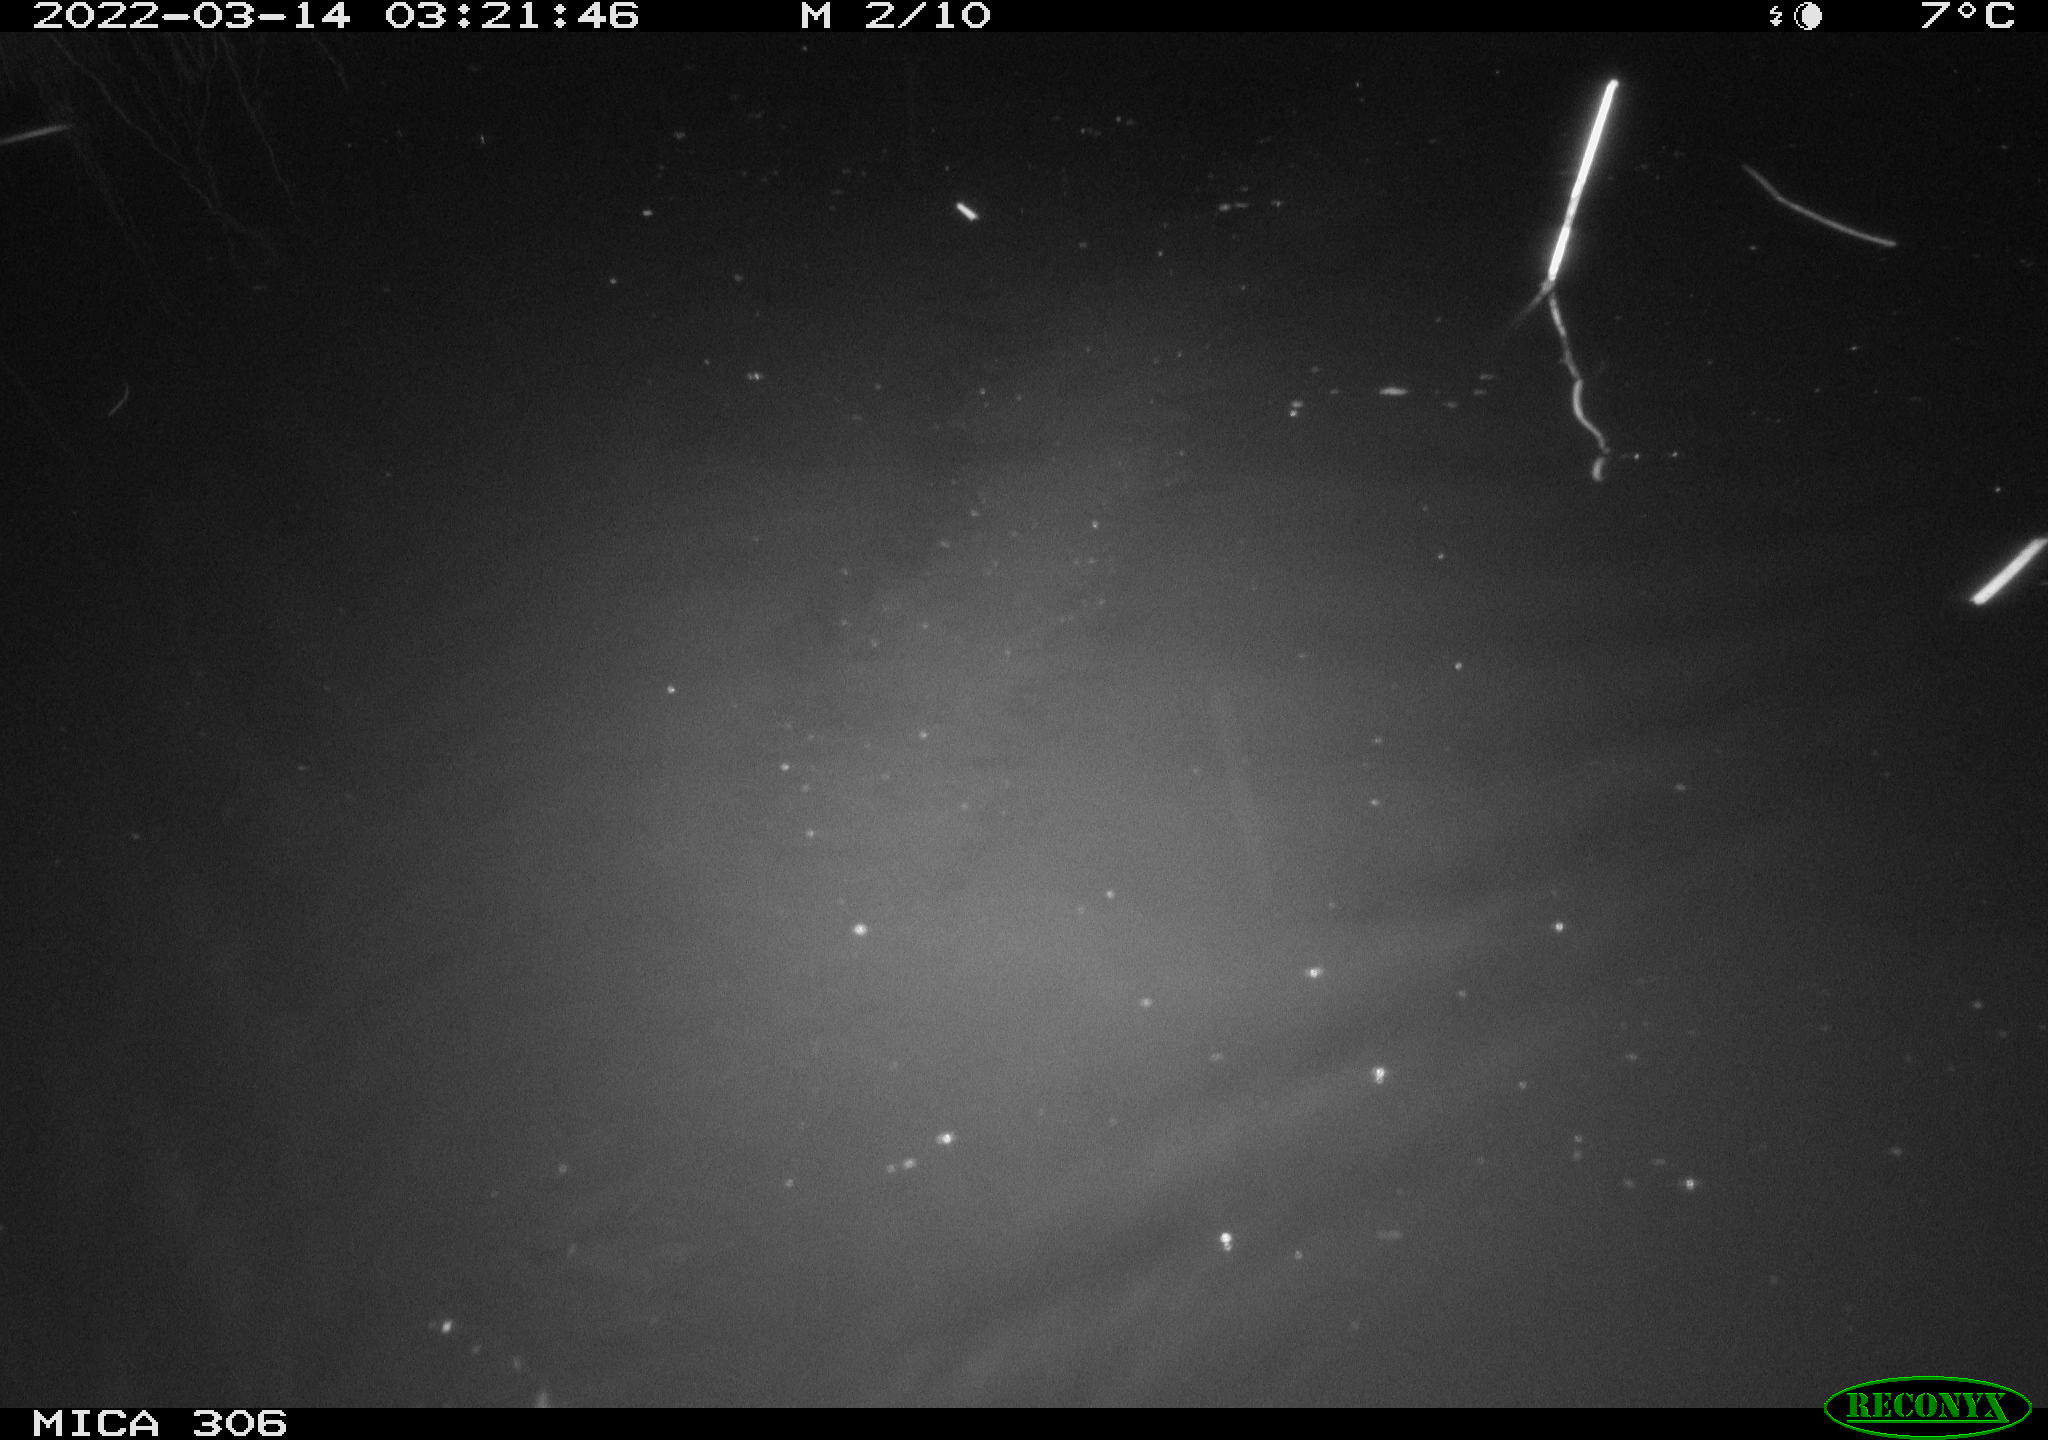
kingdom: Animalia
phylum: Chordata
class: Mammalia
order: Rodentia
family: Muridae
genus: Rattus
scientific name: Rattus norvegicus
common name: Brown rat
